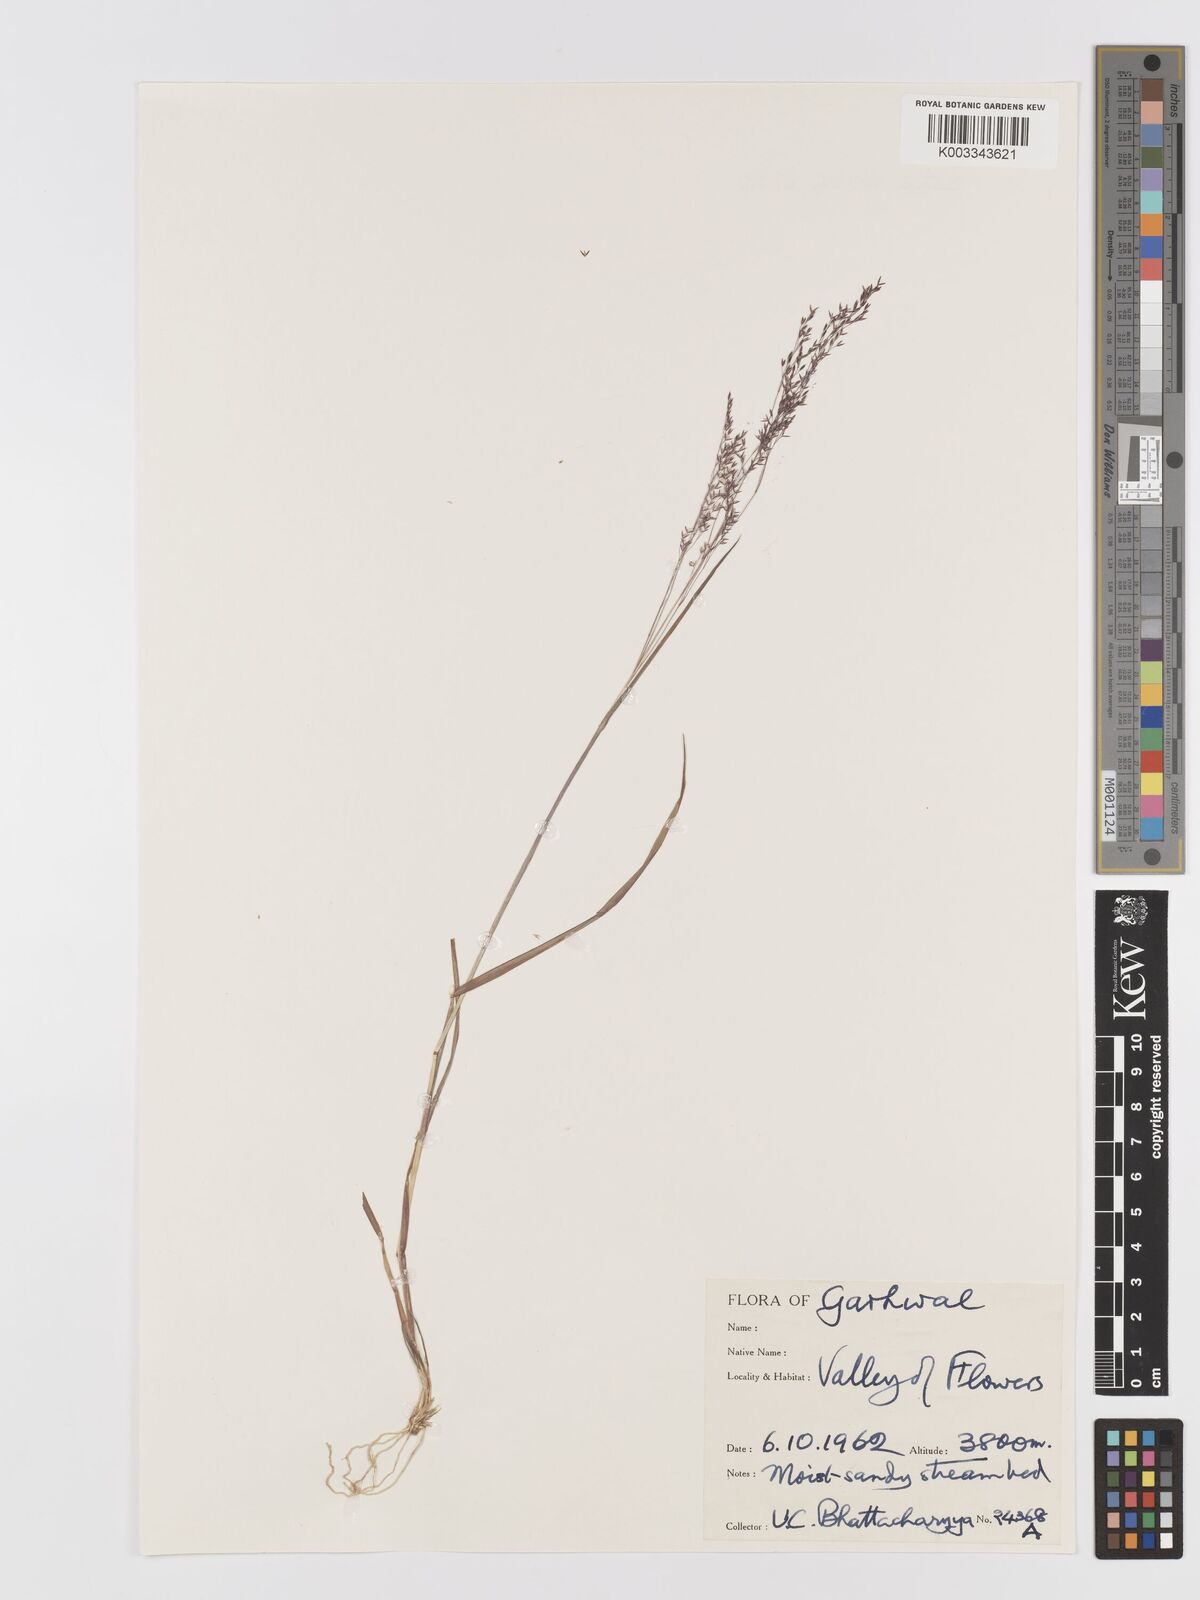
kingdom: Plantae
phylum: Tracheophyta
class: Liliopsida
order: Poales
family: Poaceae
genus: Agrostis
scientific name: Agrostis munroana
